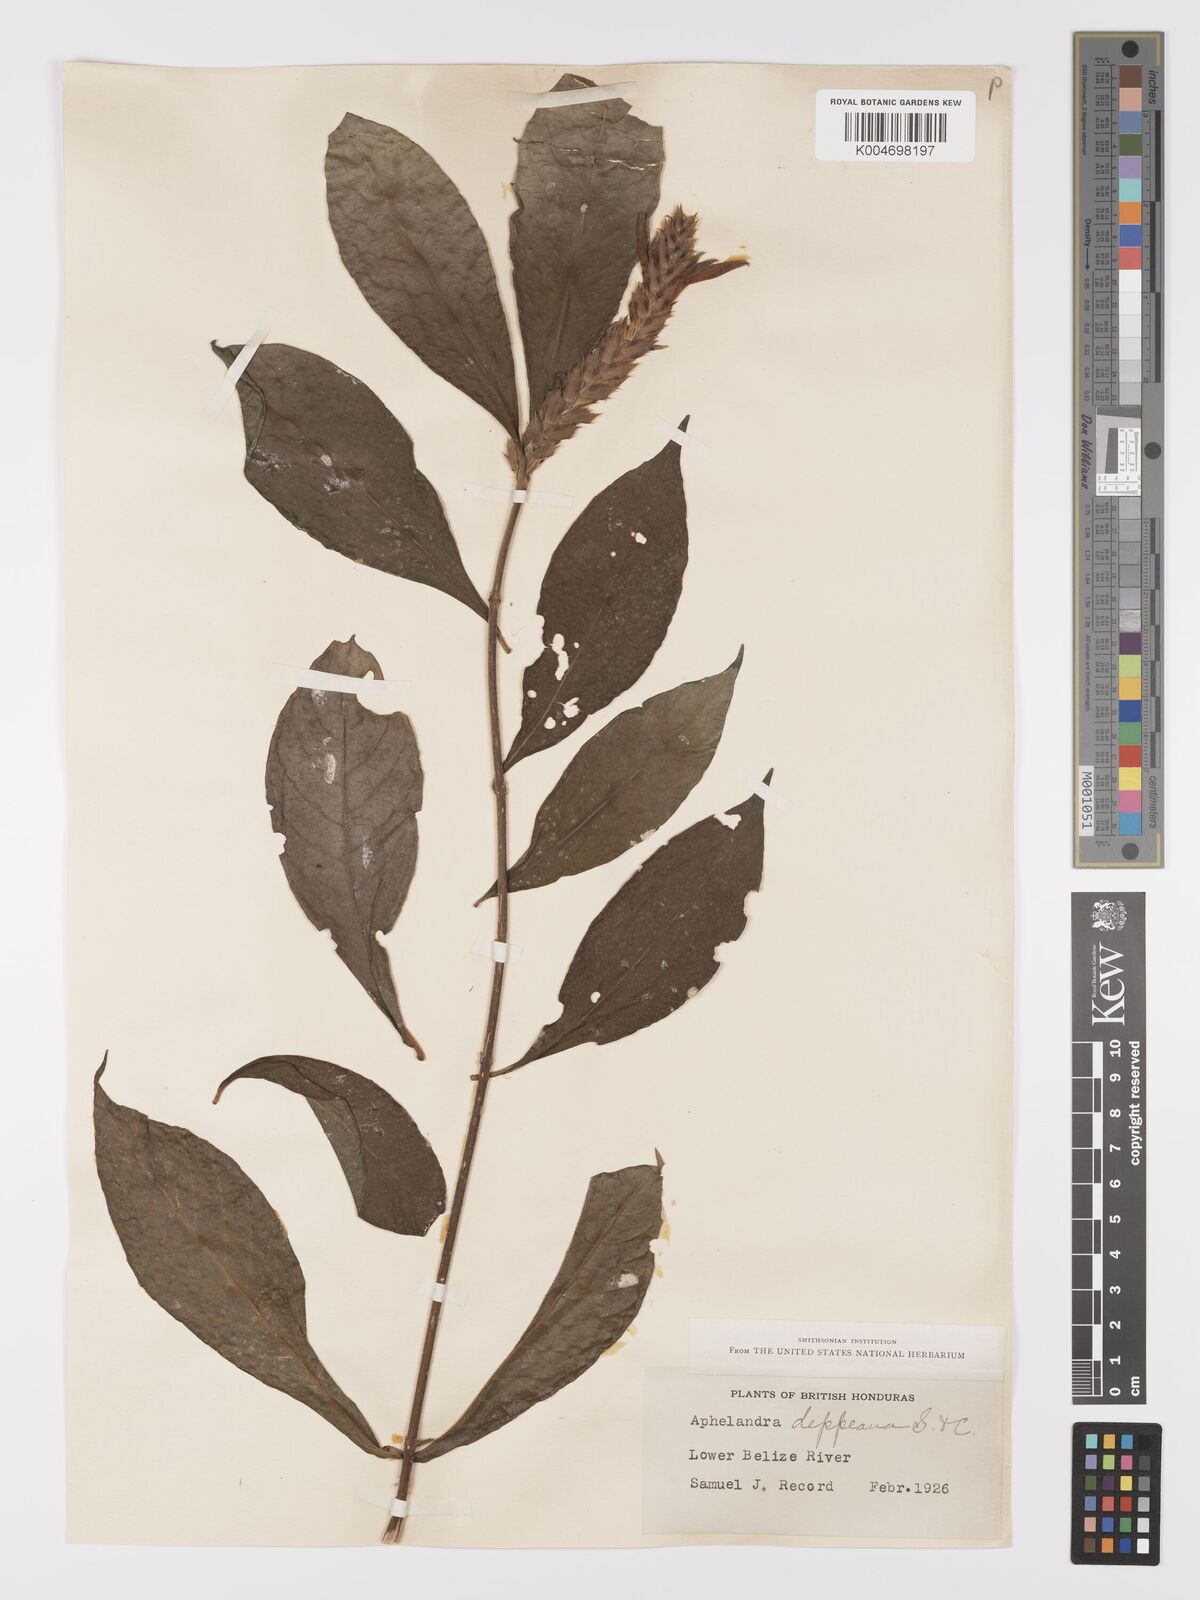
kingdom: Plantae
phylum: Tracheophyta
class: Magnoliopsida
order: Lamiales
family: Acanthaceae
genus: Aphelandra
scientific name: Aphelandra scabra
